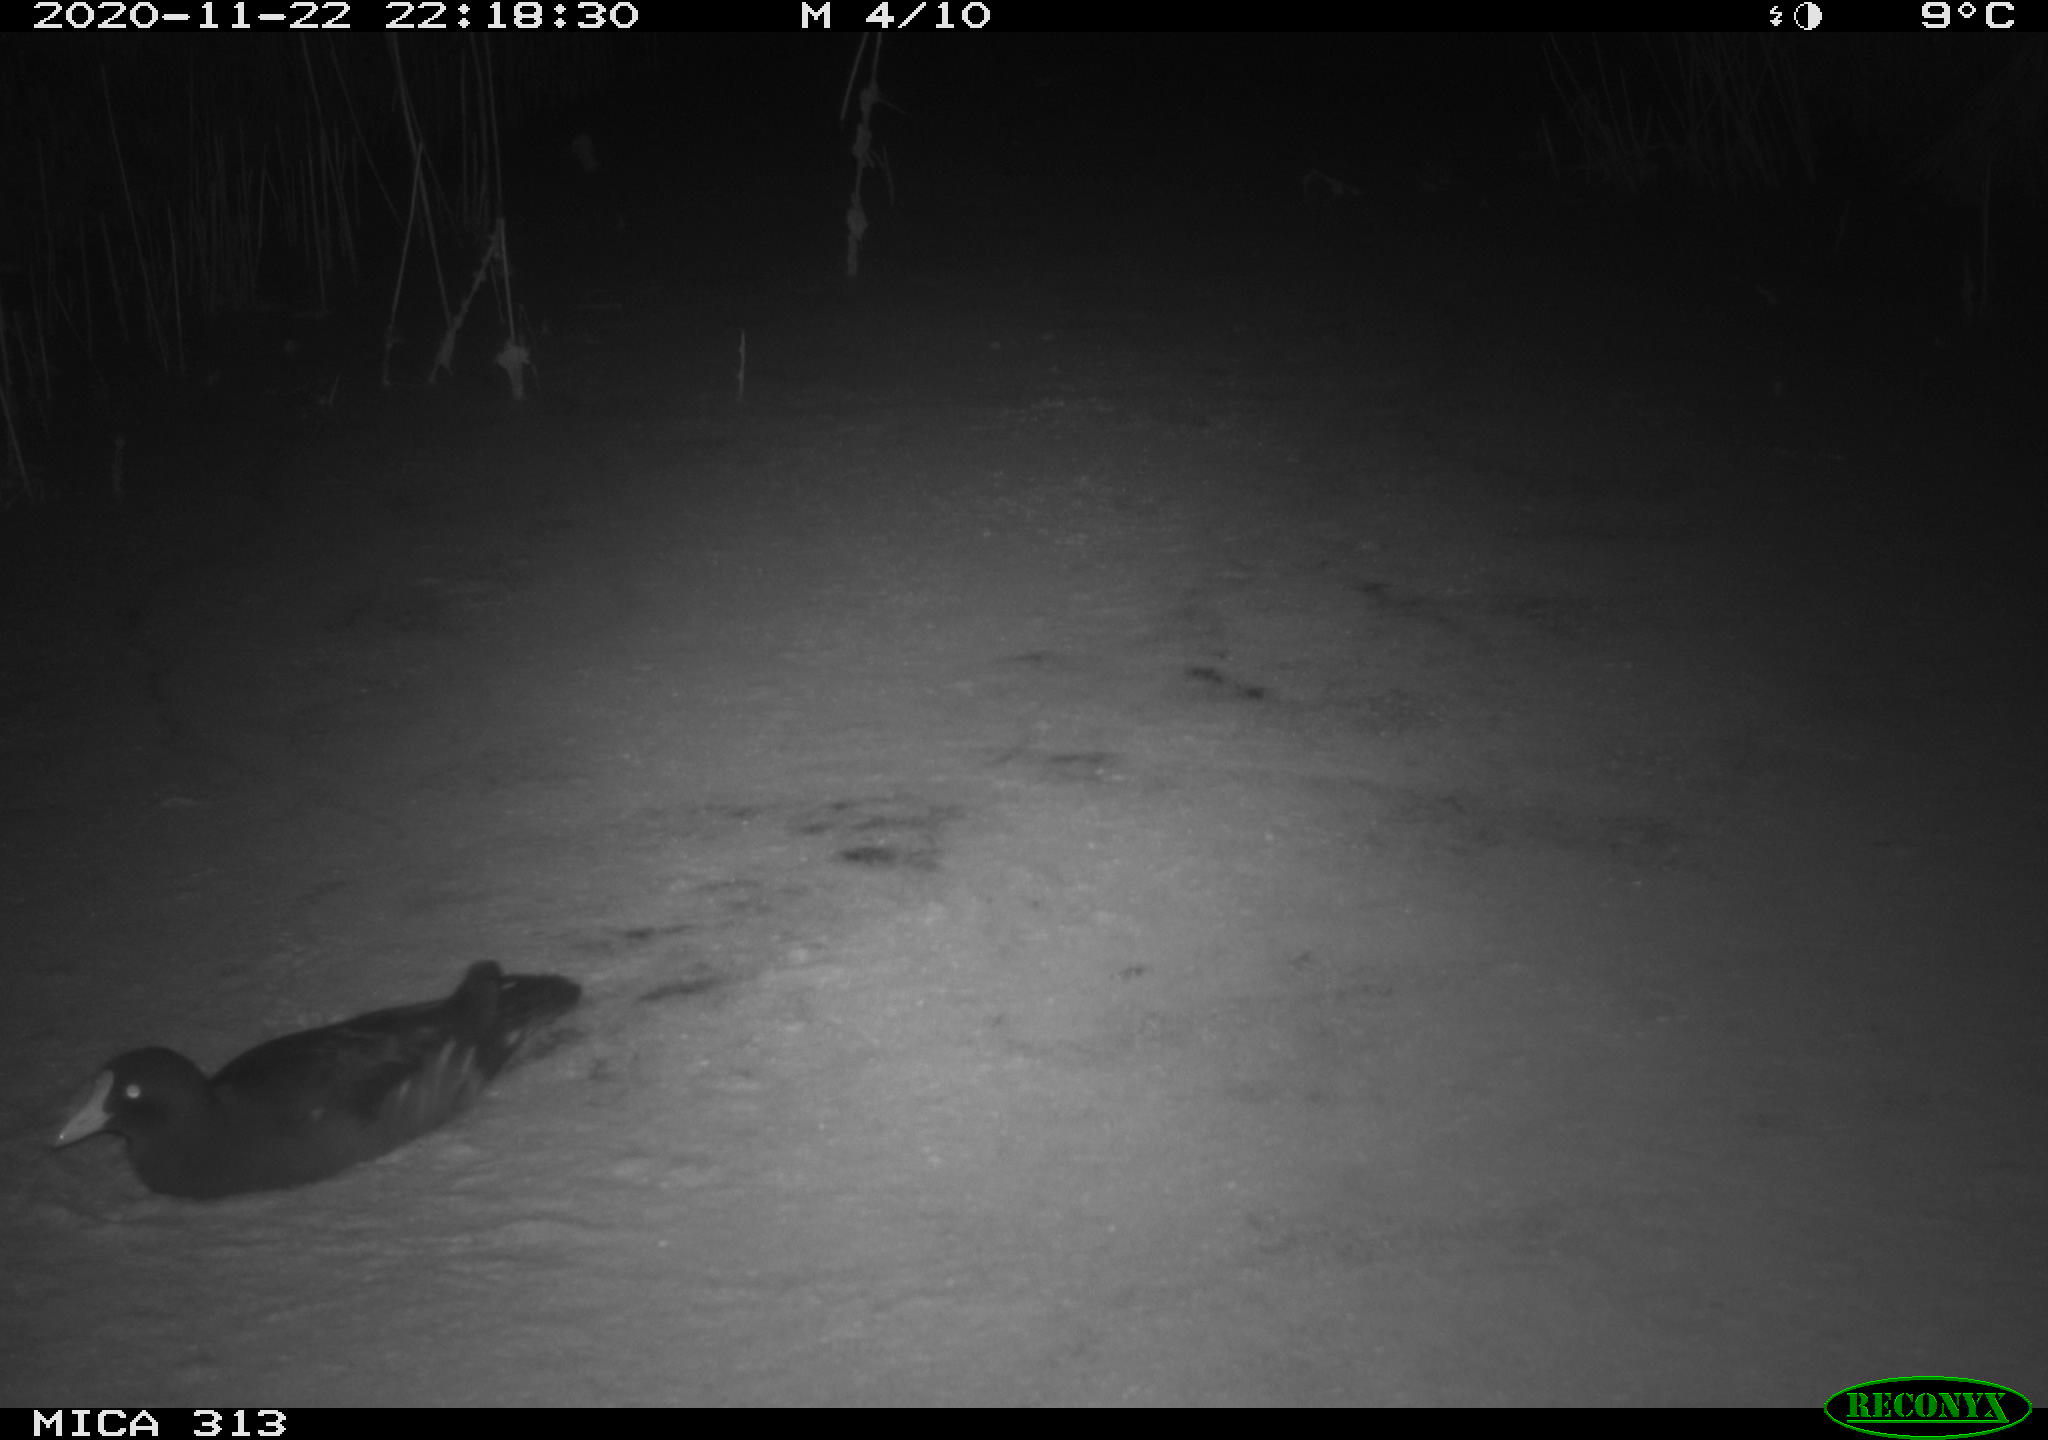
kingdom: Animalia
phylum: Chordata
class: Aves
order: Gruiformes
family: Rallidae
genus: Fulica
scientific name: Fulica atra
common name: Eurasian coot
